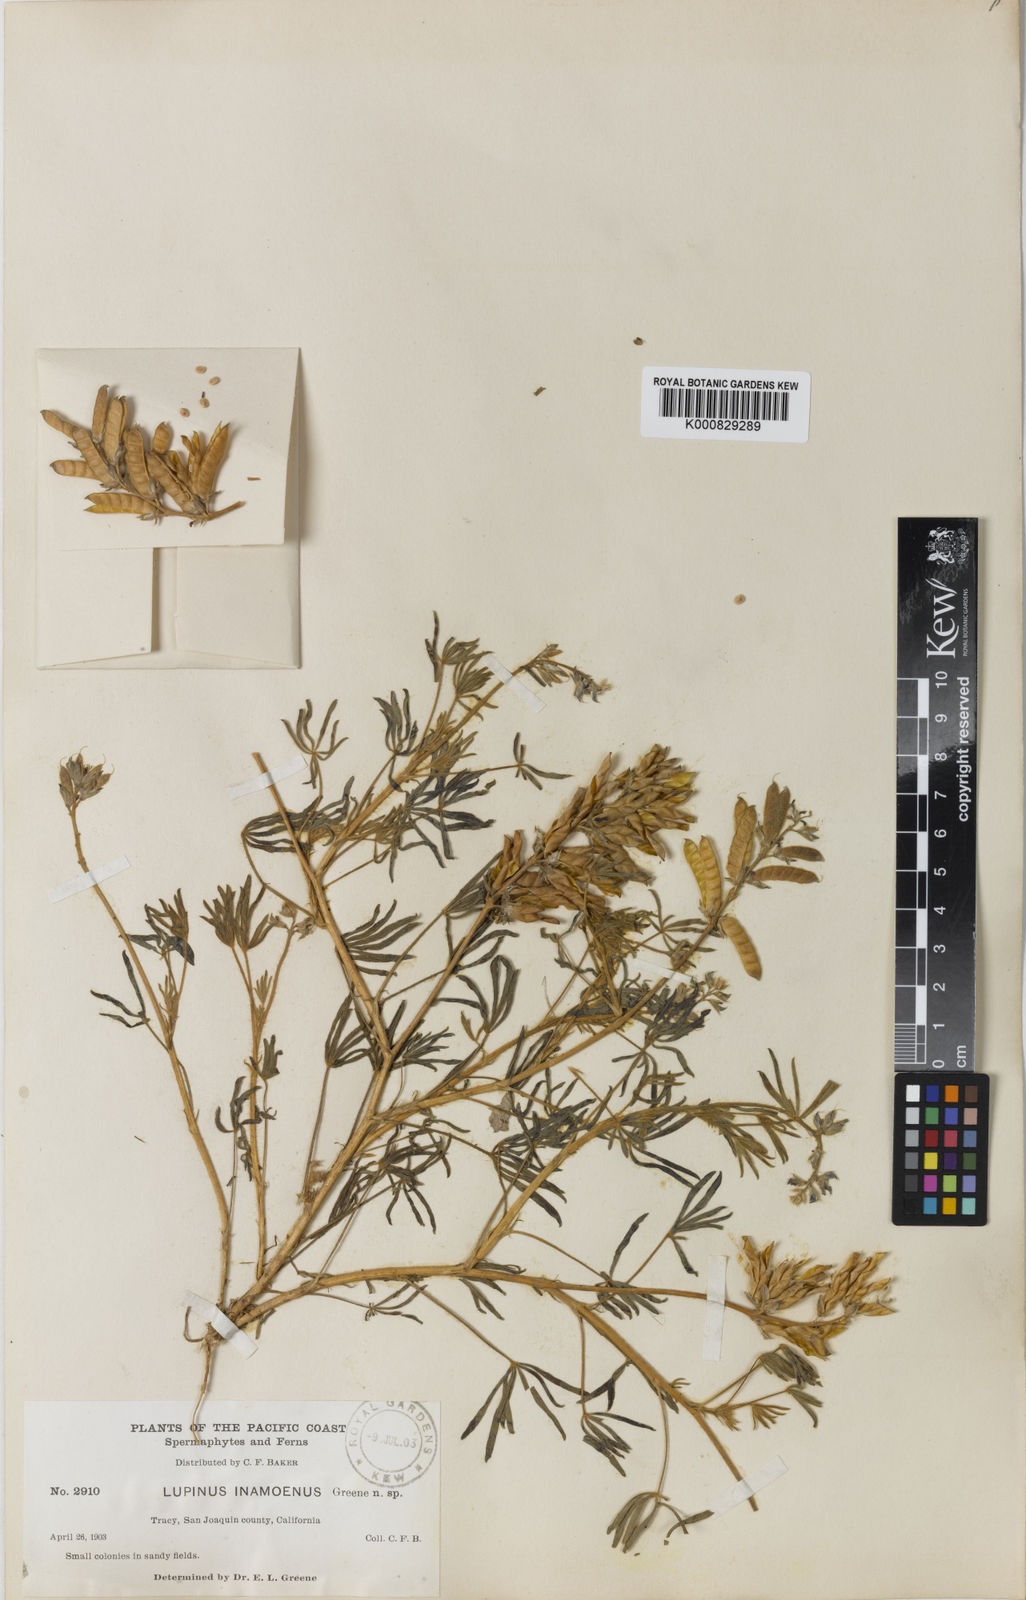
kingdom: Plantae
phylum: Tracheophyta
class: Magnoliopsida
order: Fabales
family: Fabaceae
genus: Lupinus
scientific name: Lupinus
